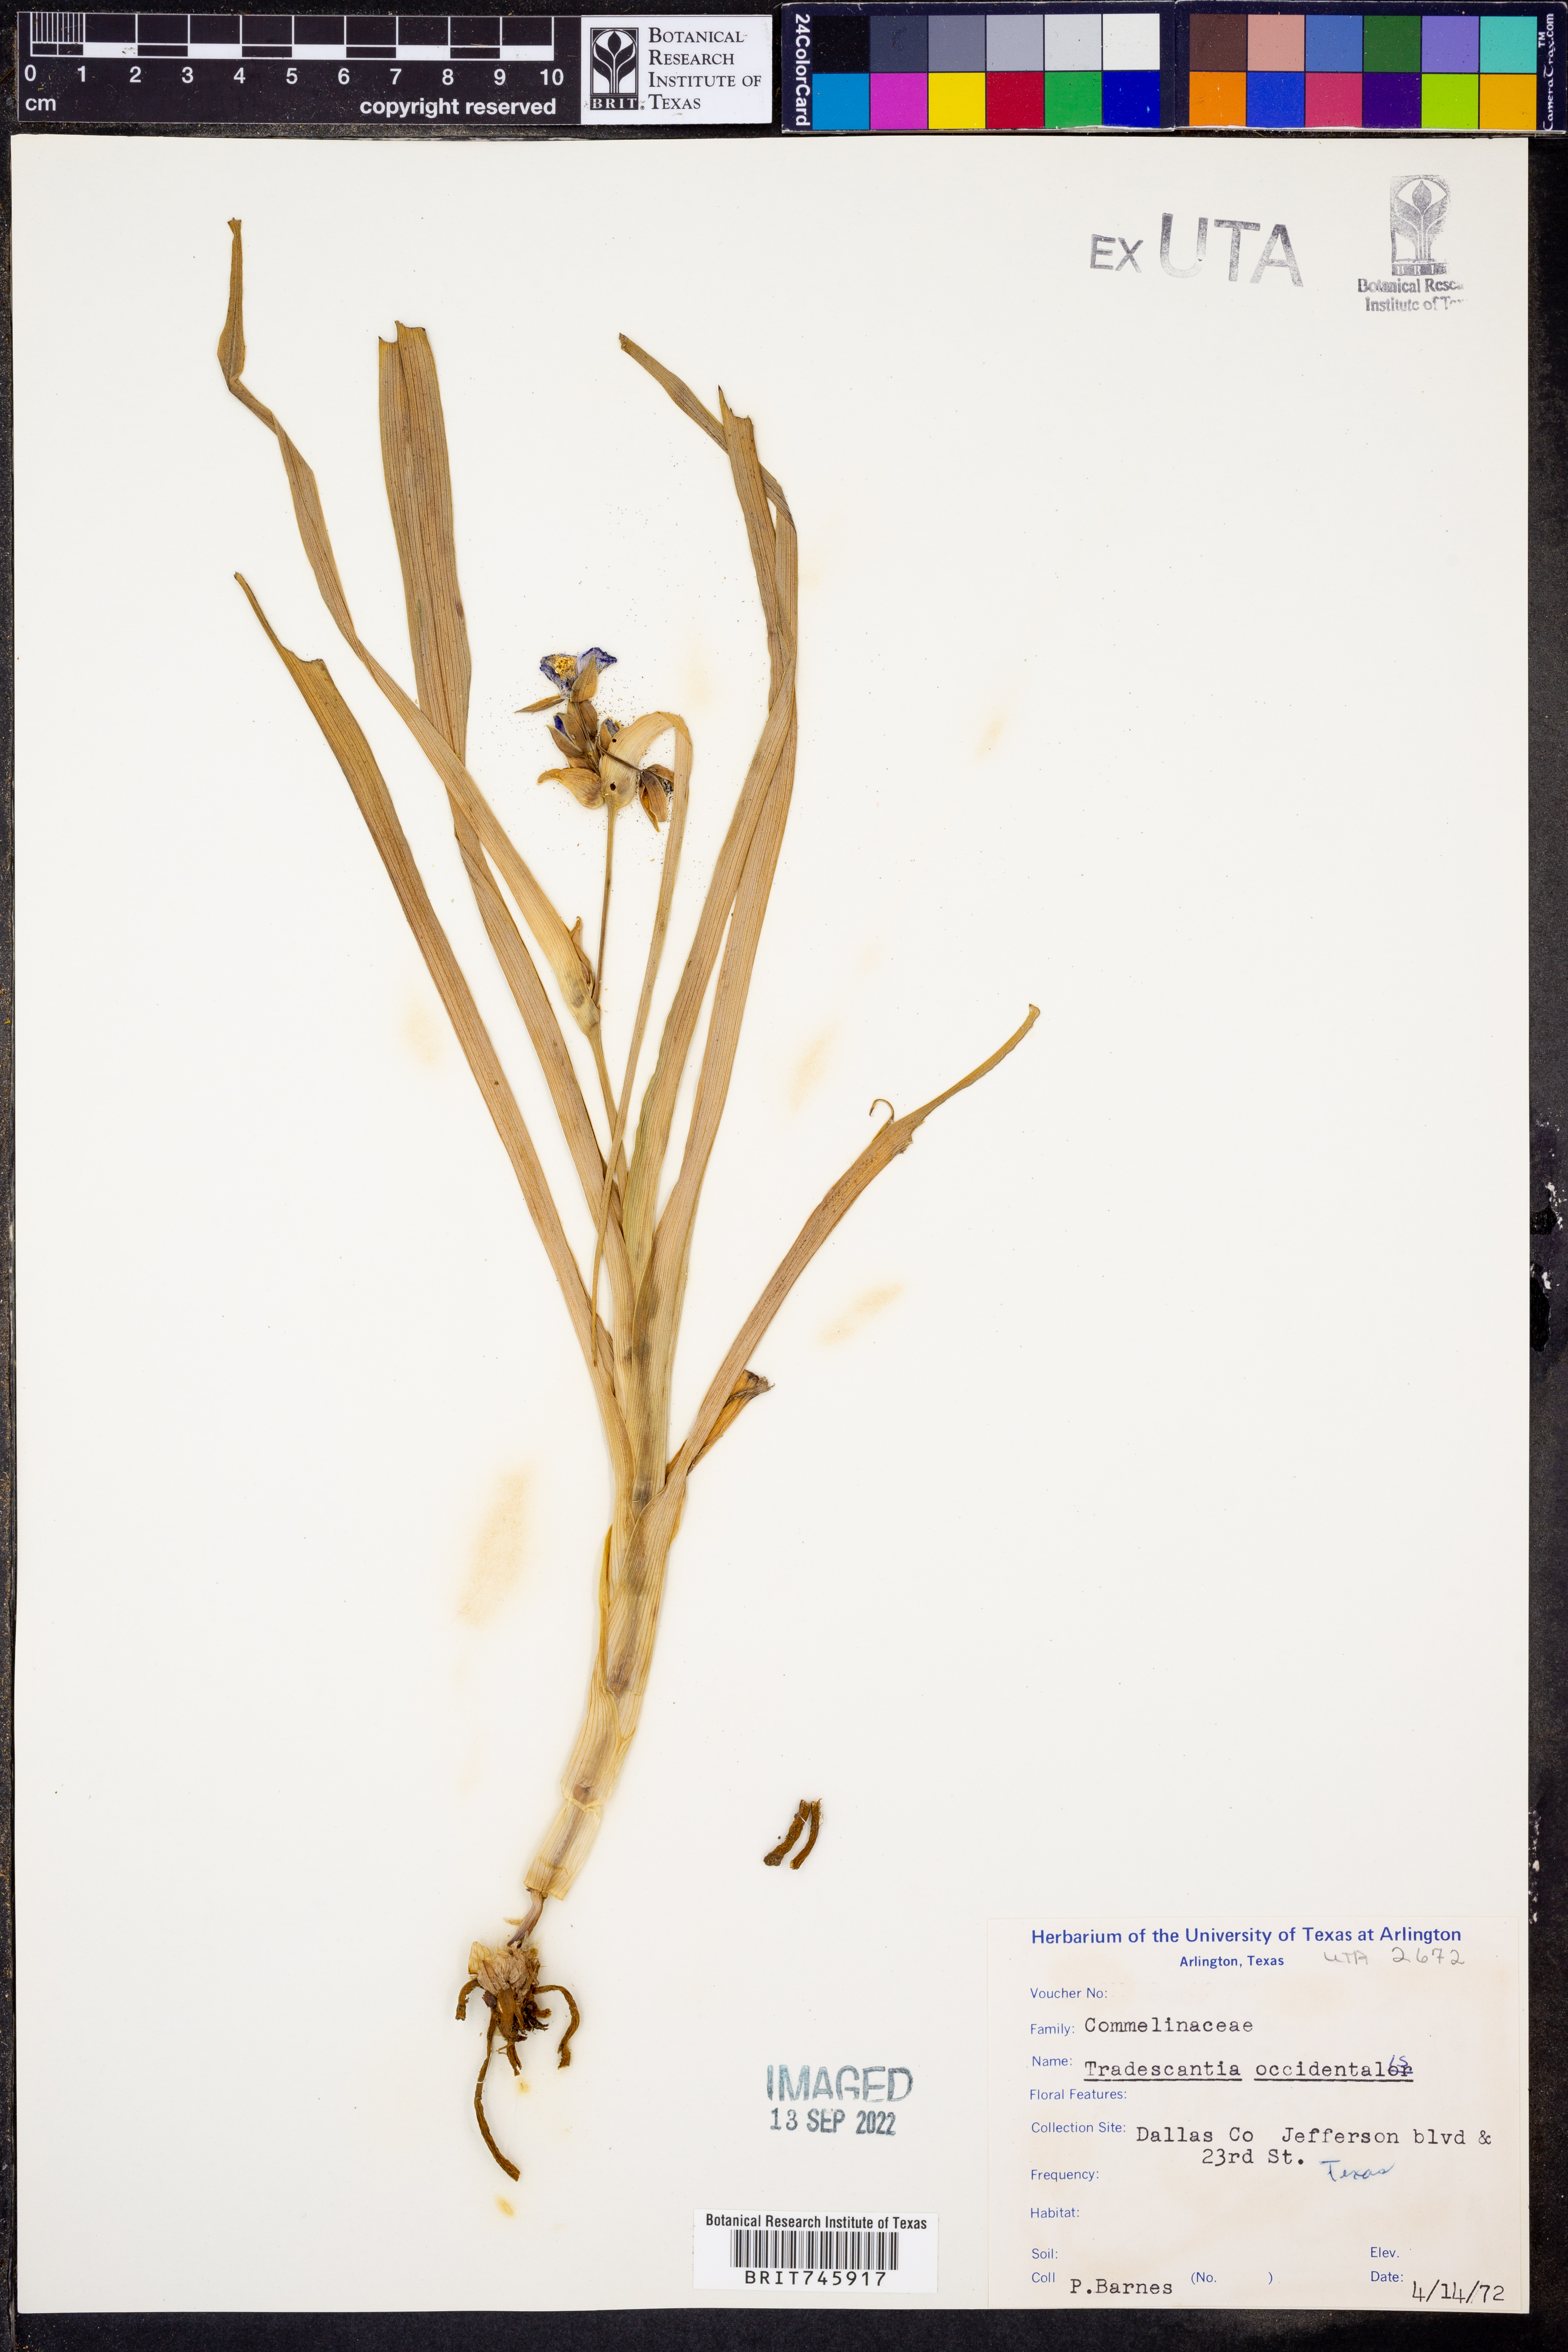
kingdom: Plantae
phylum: Tracheophyta
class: Liliopsida
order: Commelinales
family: Commelinaceae
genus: Tradescantia
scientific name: Tradescantia occidentalis
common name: Prairie spiderwort
